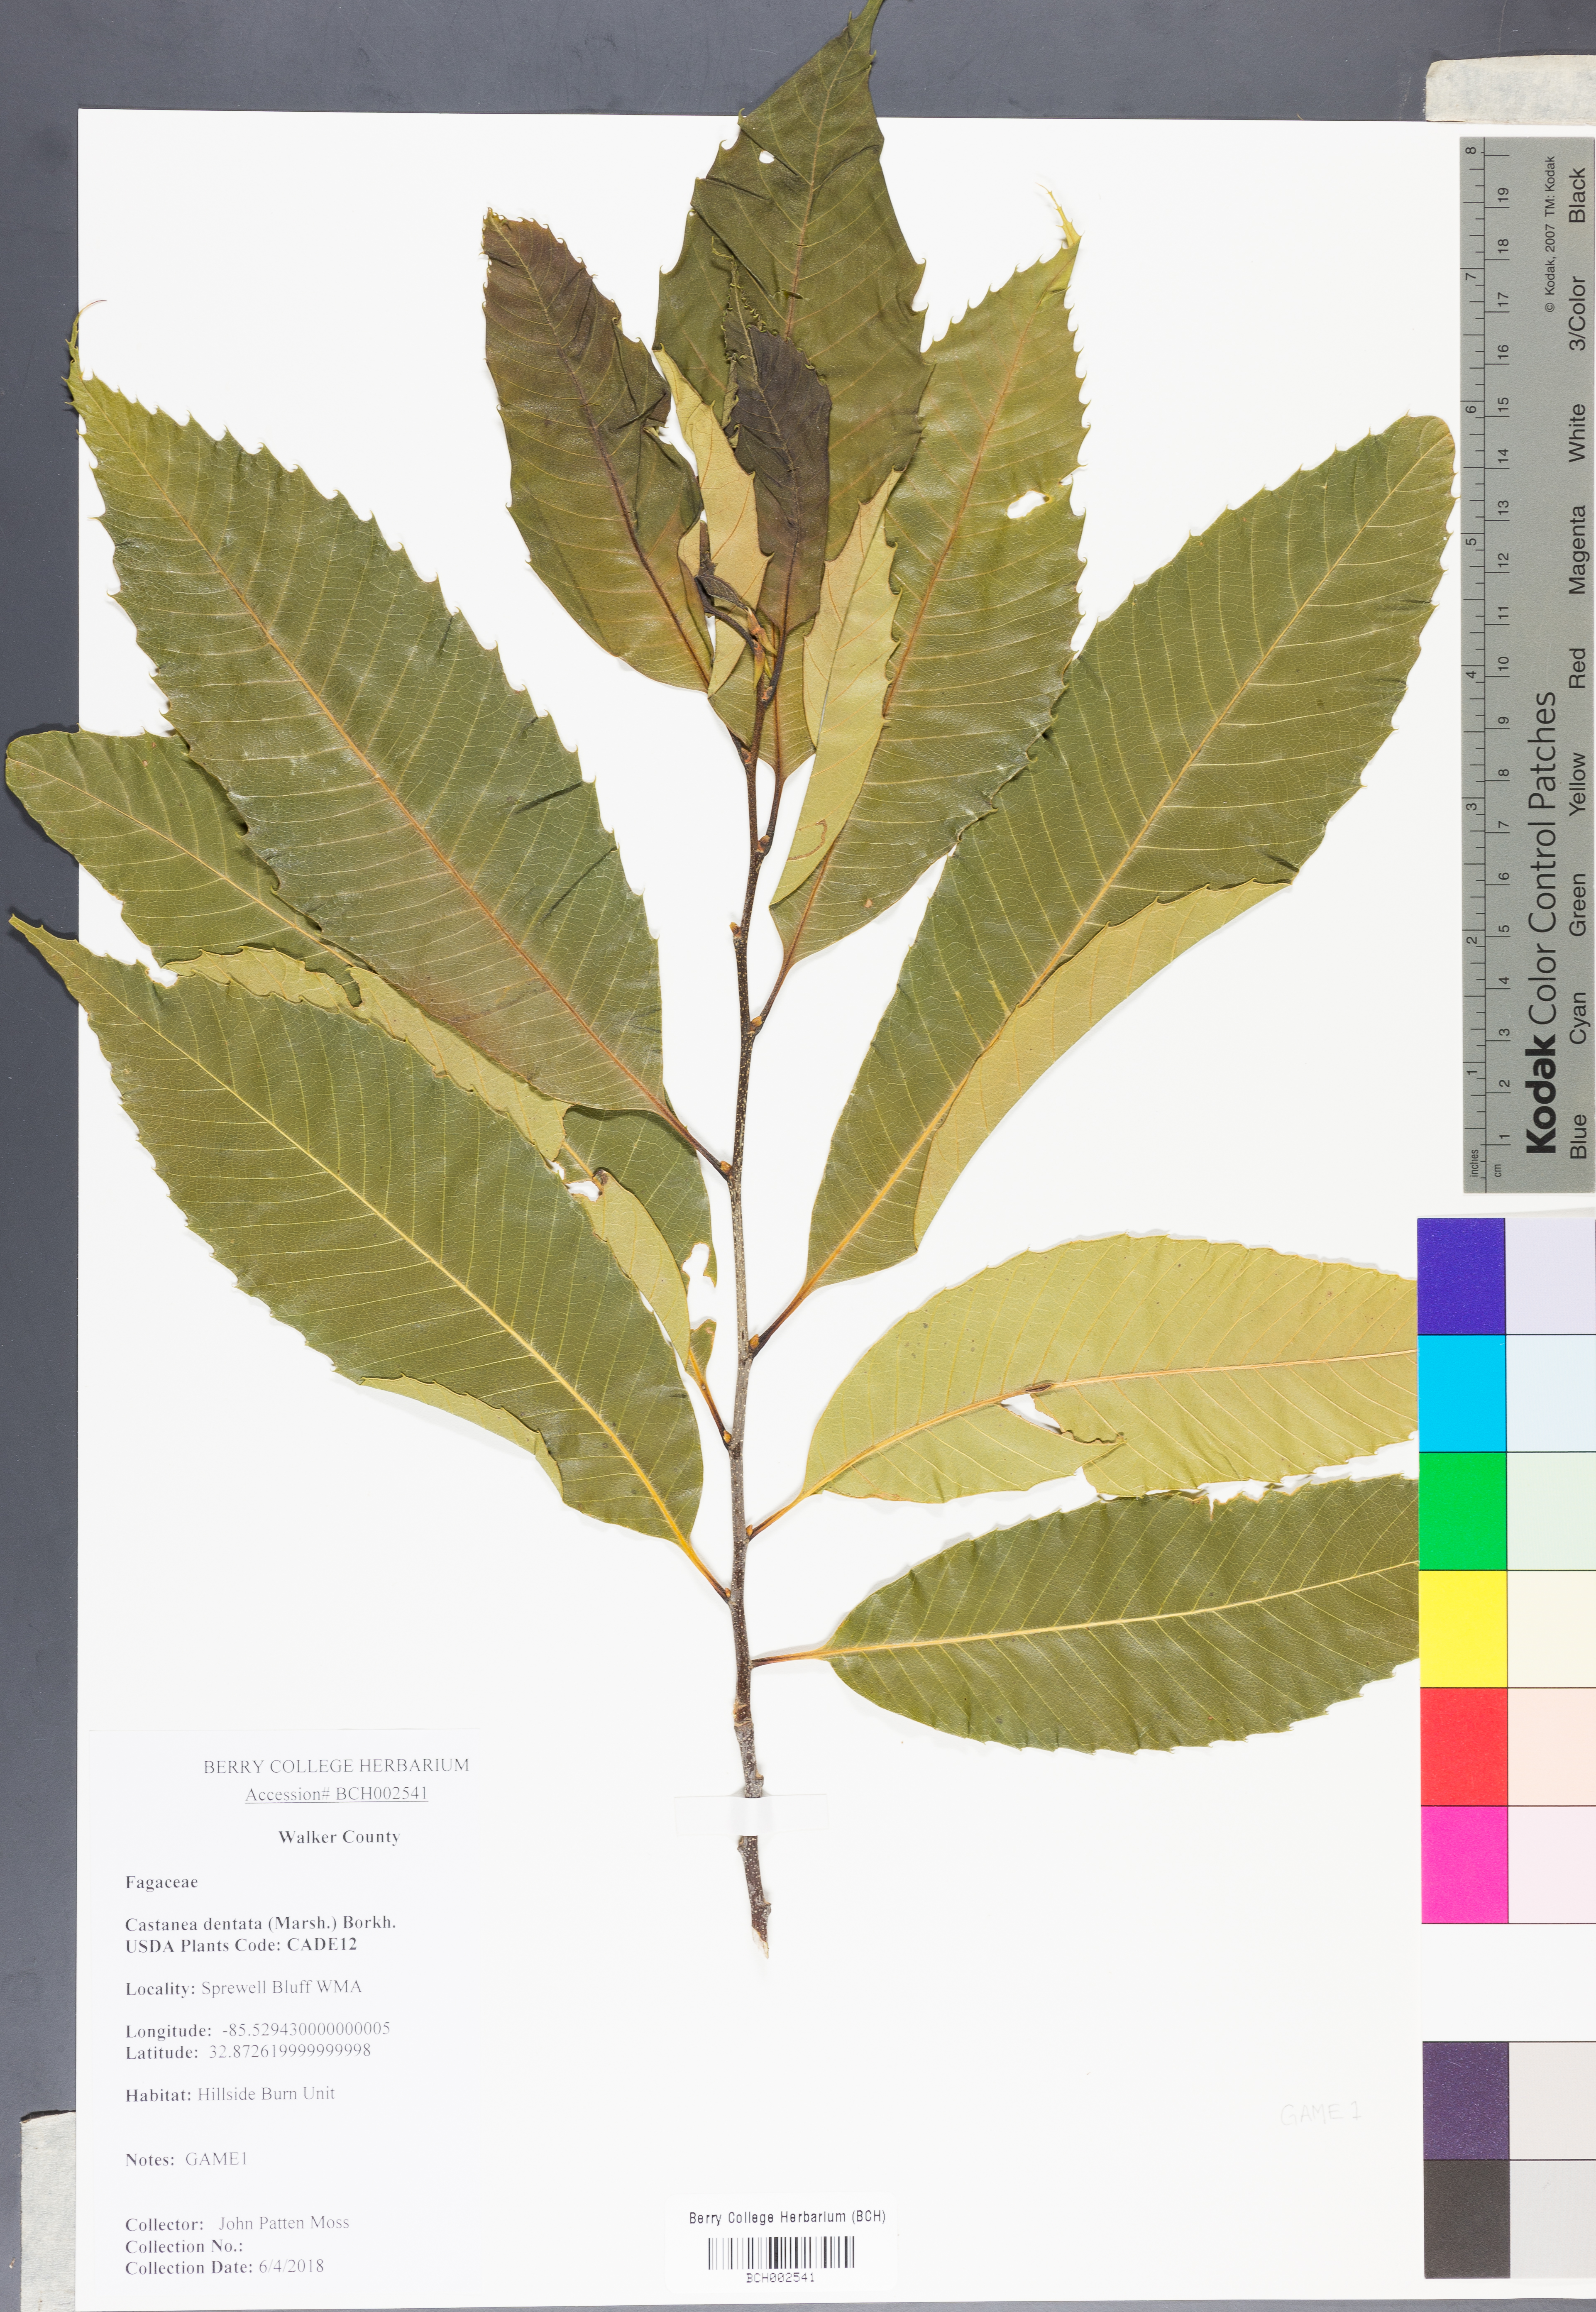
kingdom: Plantae
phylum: Tracheophyta
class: Magnoliopsida
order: Fagales
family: Fagaceae
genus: Castanea
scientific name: Castanea dentata
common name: American chestnut
